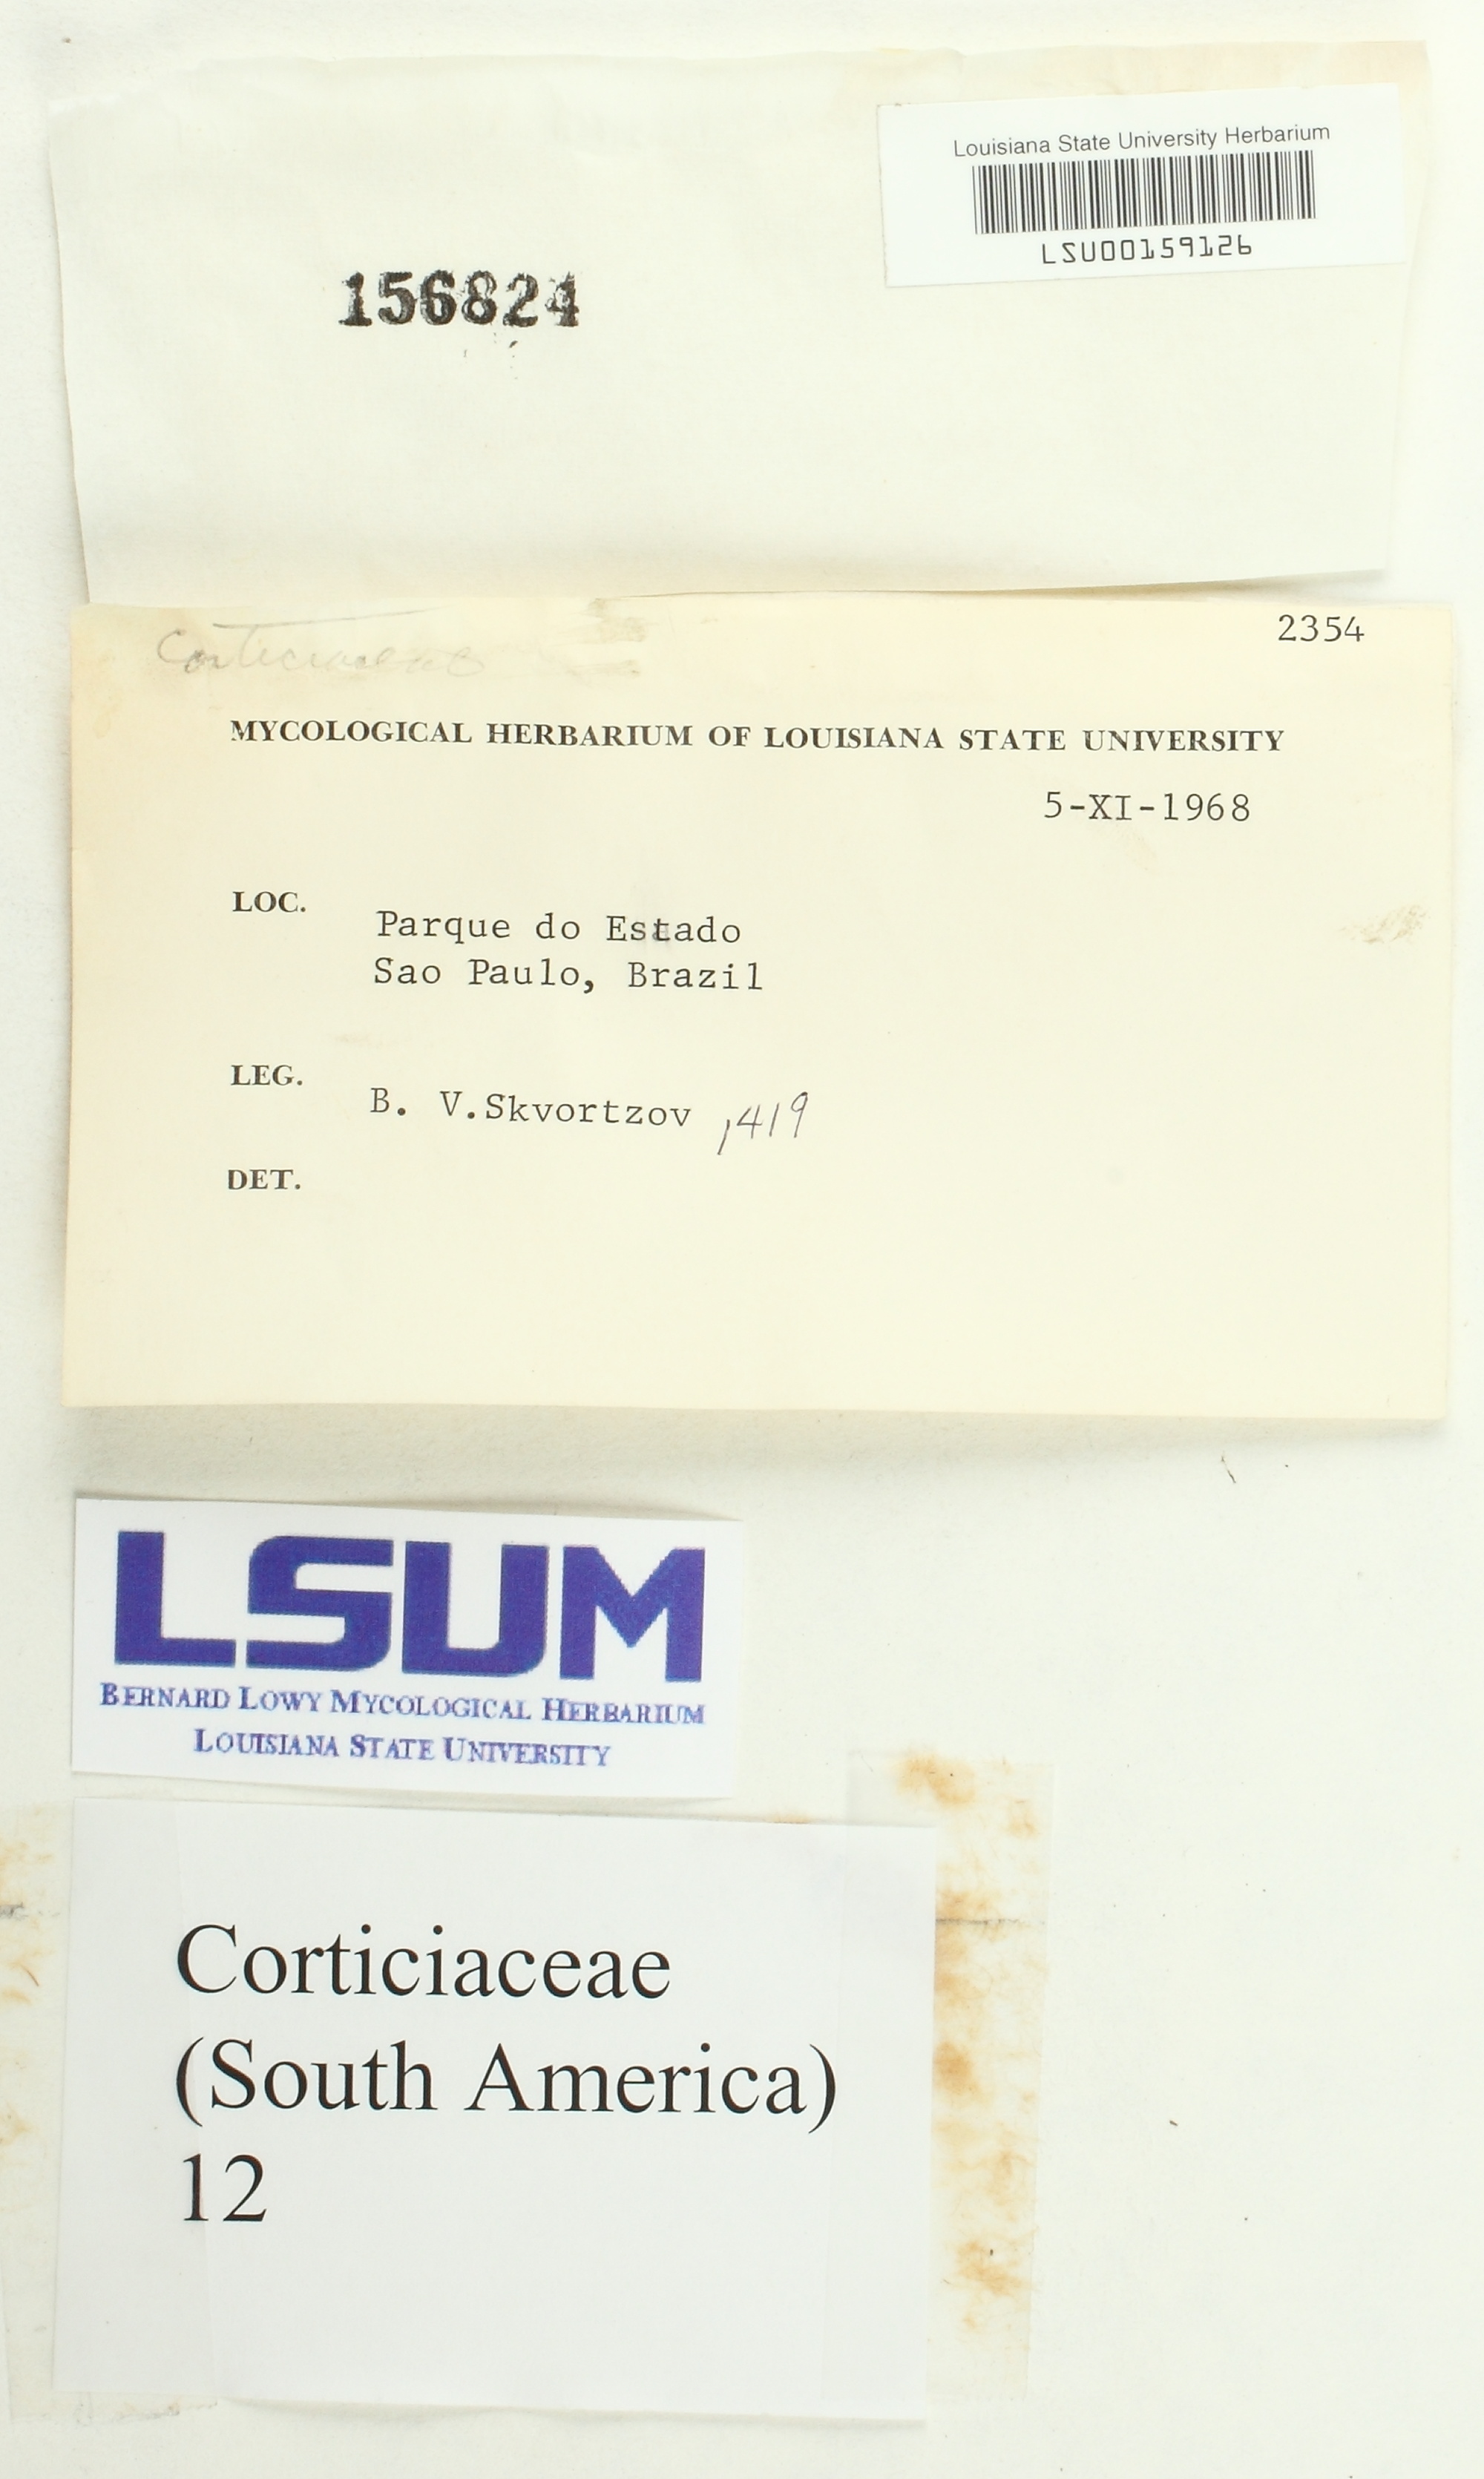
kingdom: Fungi
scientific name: Fungi
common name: Fungi
